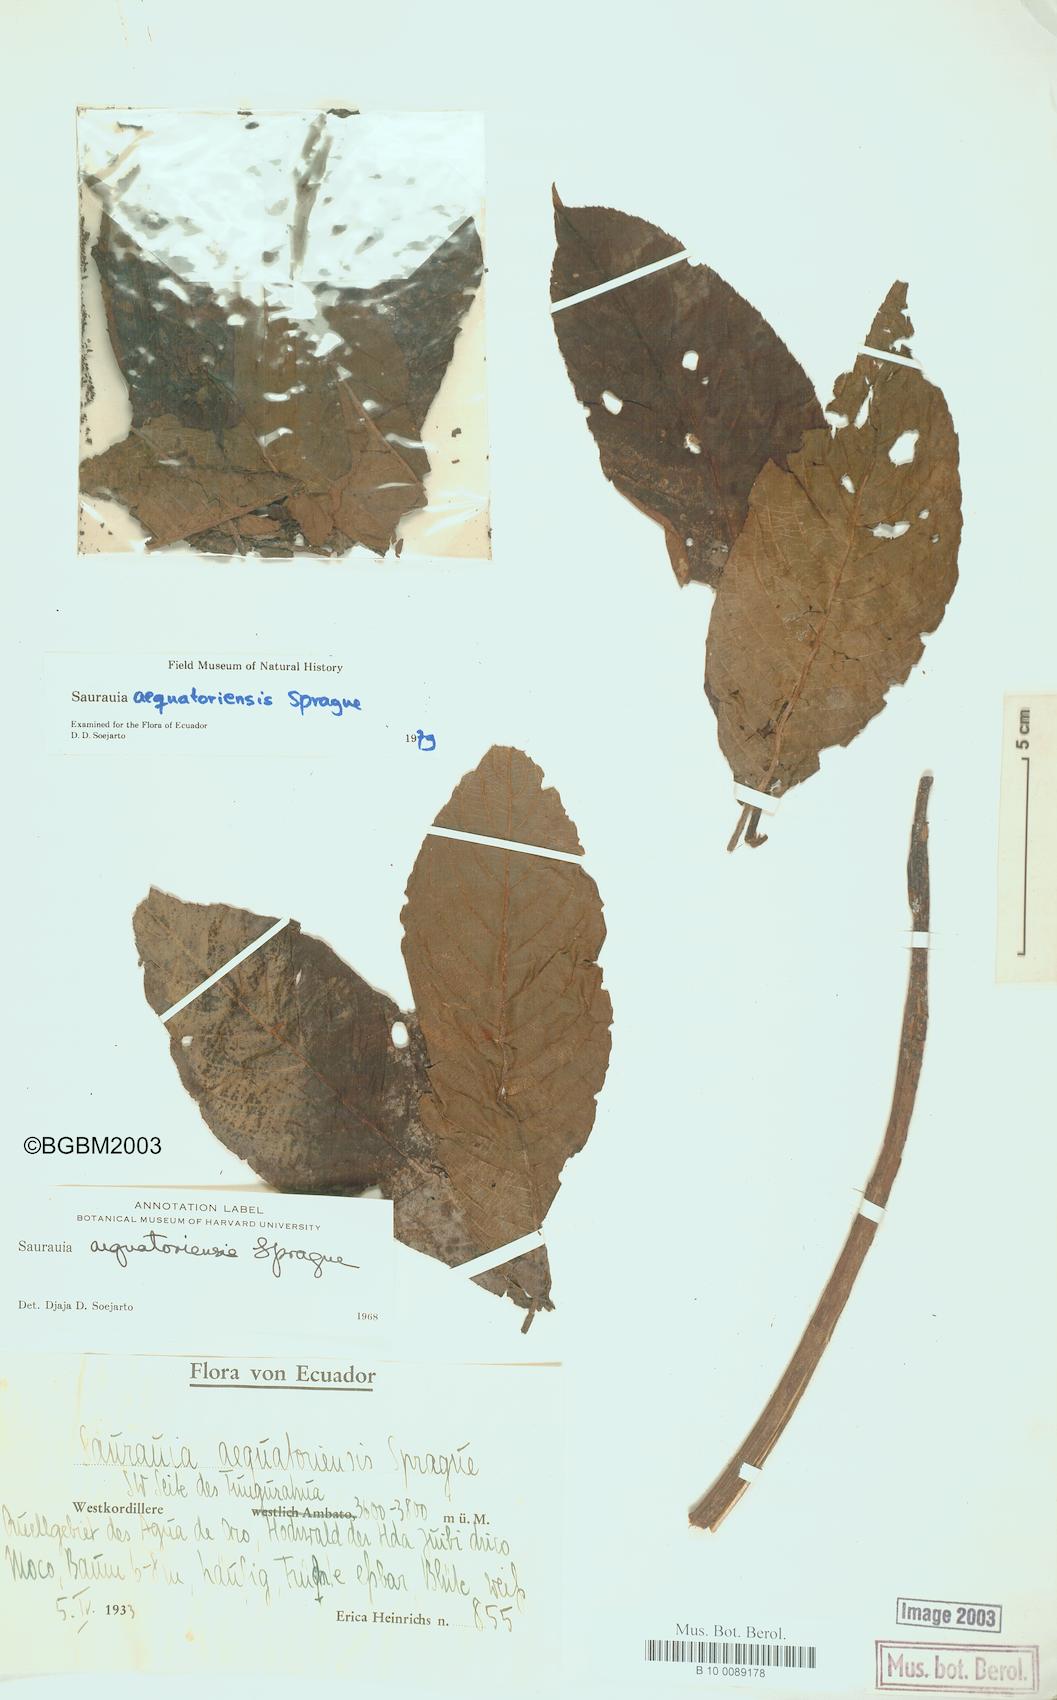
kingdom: Plantae
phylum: Tracheophyta
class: Magnoliopsida
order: Ericales
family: Actinidiaceae
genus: Saurauia
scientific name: Saurauia aequatoriensis
